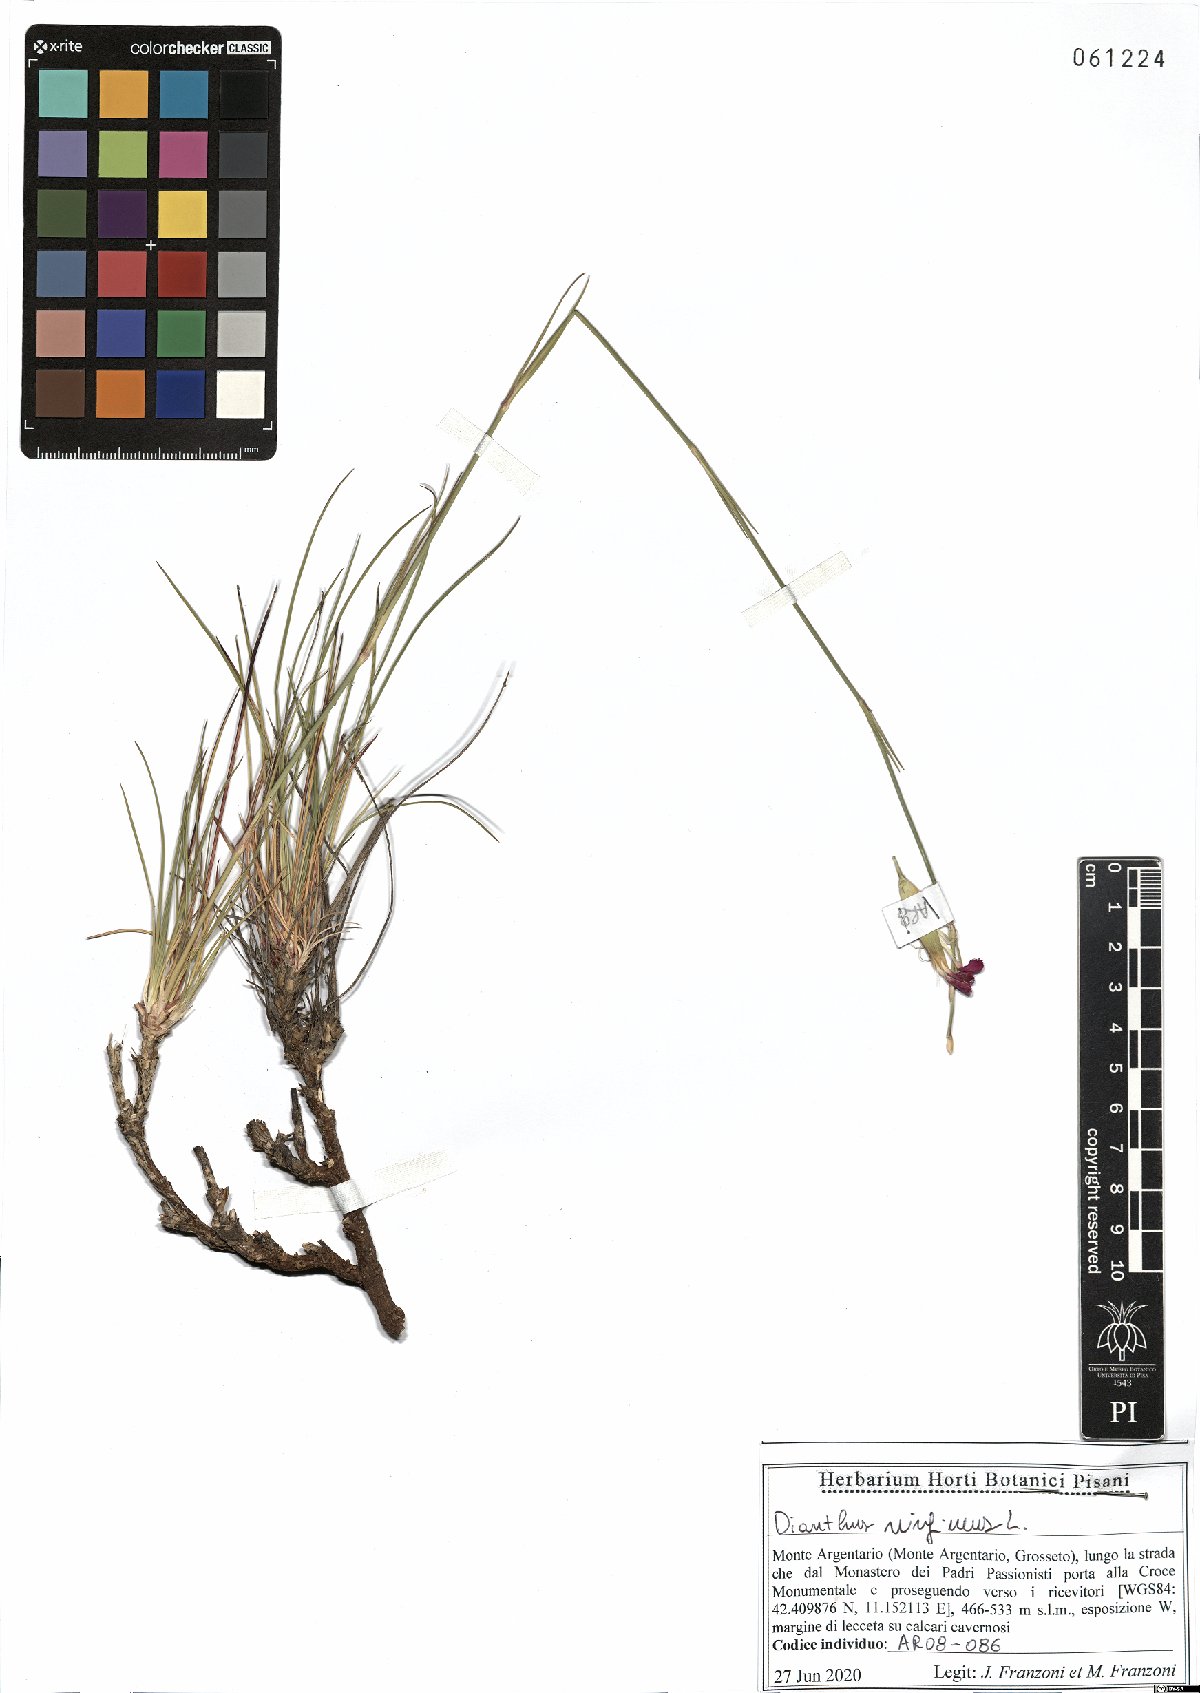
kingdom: Plantae
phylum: Tracheophyta
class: Magnoliopsida
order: Caryophyllales
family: Caryophyllaceae
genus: Dianthus
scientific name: Dianthus virgineus
